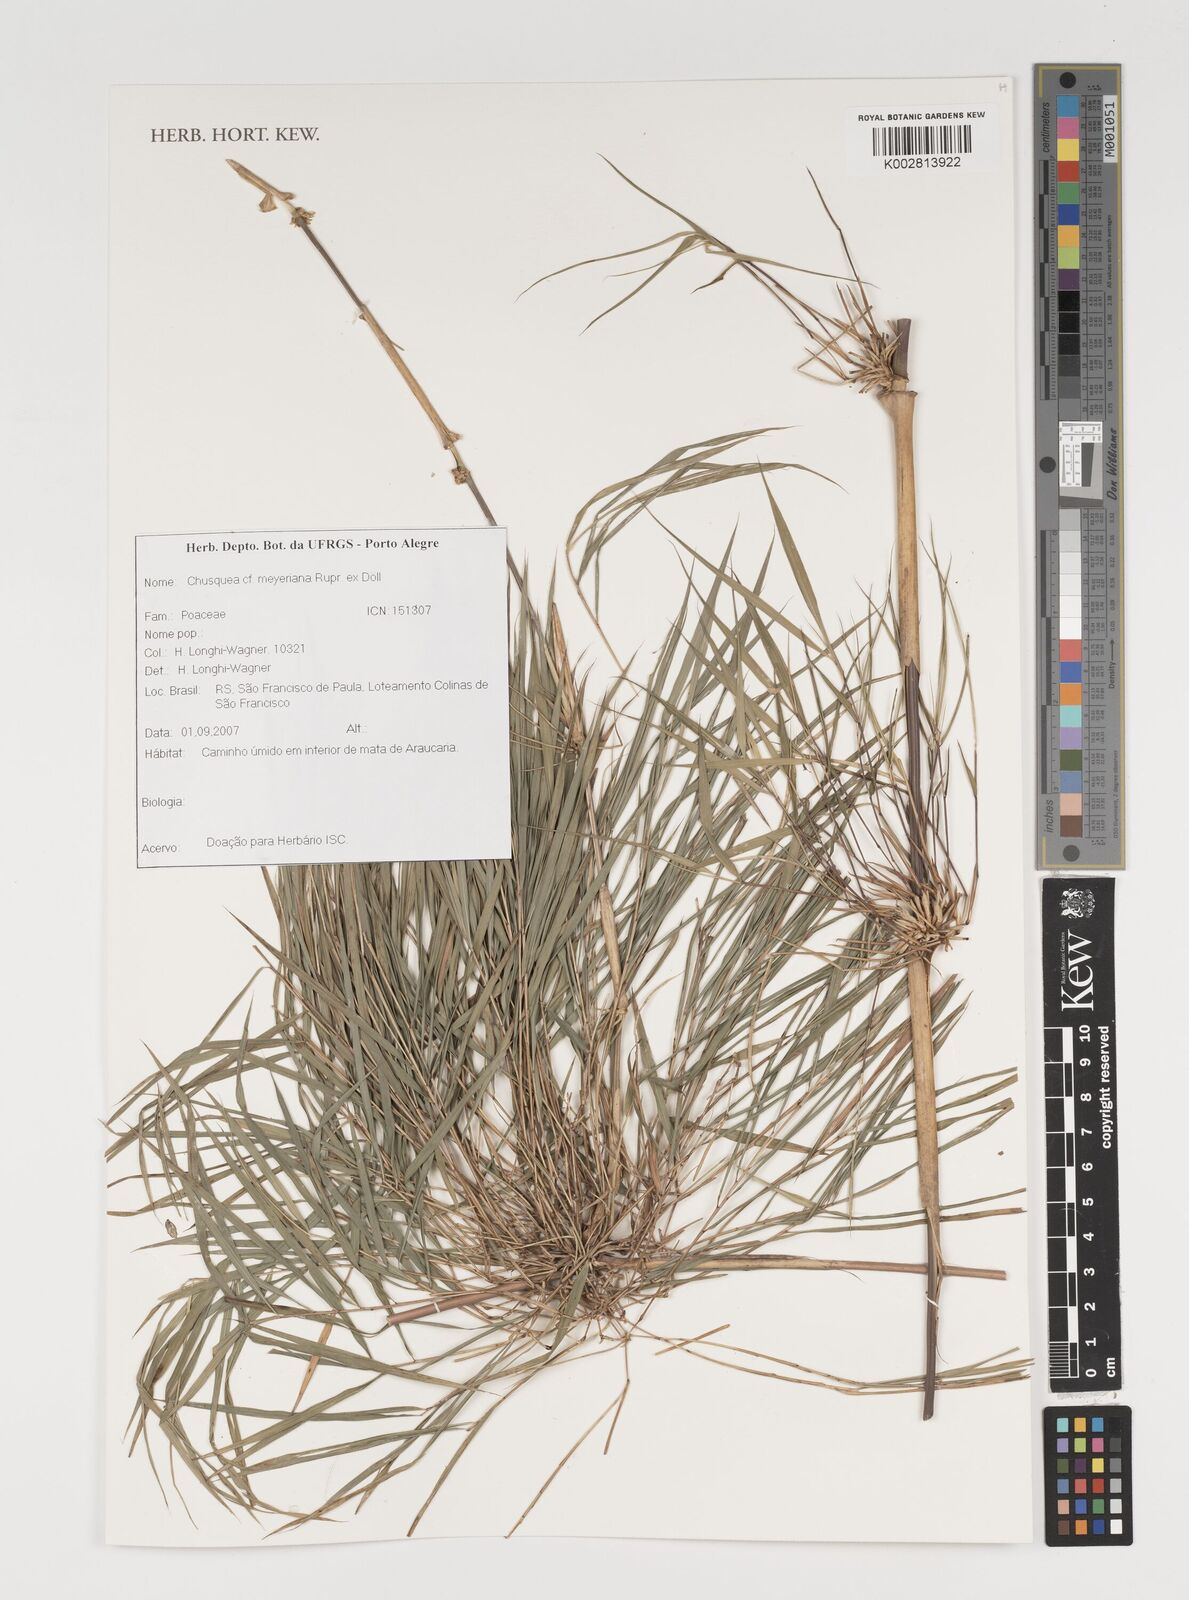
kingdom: Plantae
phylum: Tracheophyta
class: Liliopsida
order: Poales
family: Poaceae
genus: Chusquea
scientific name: Chusquea meyeriana
